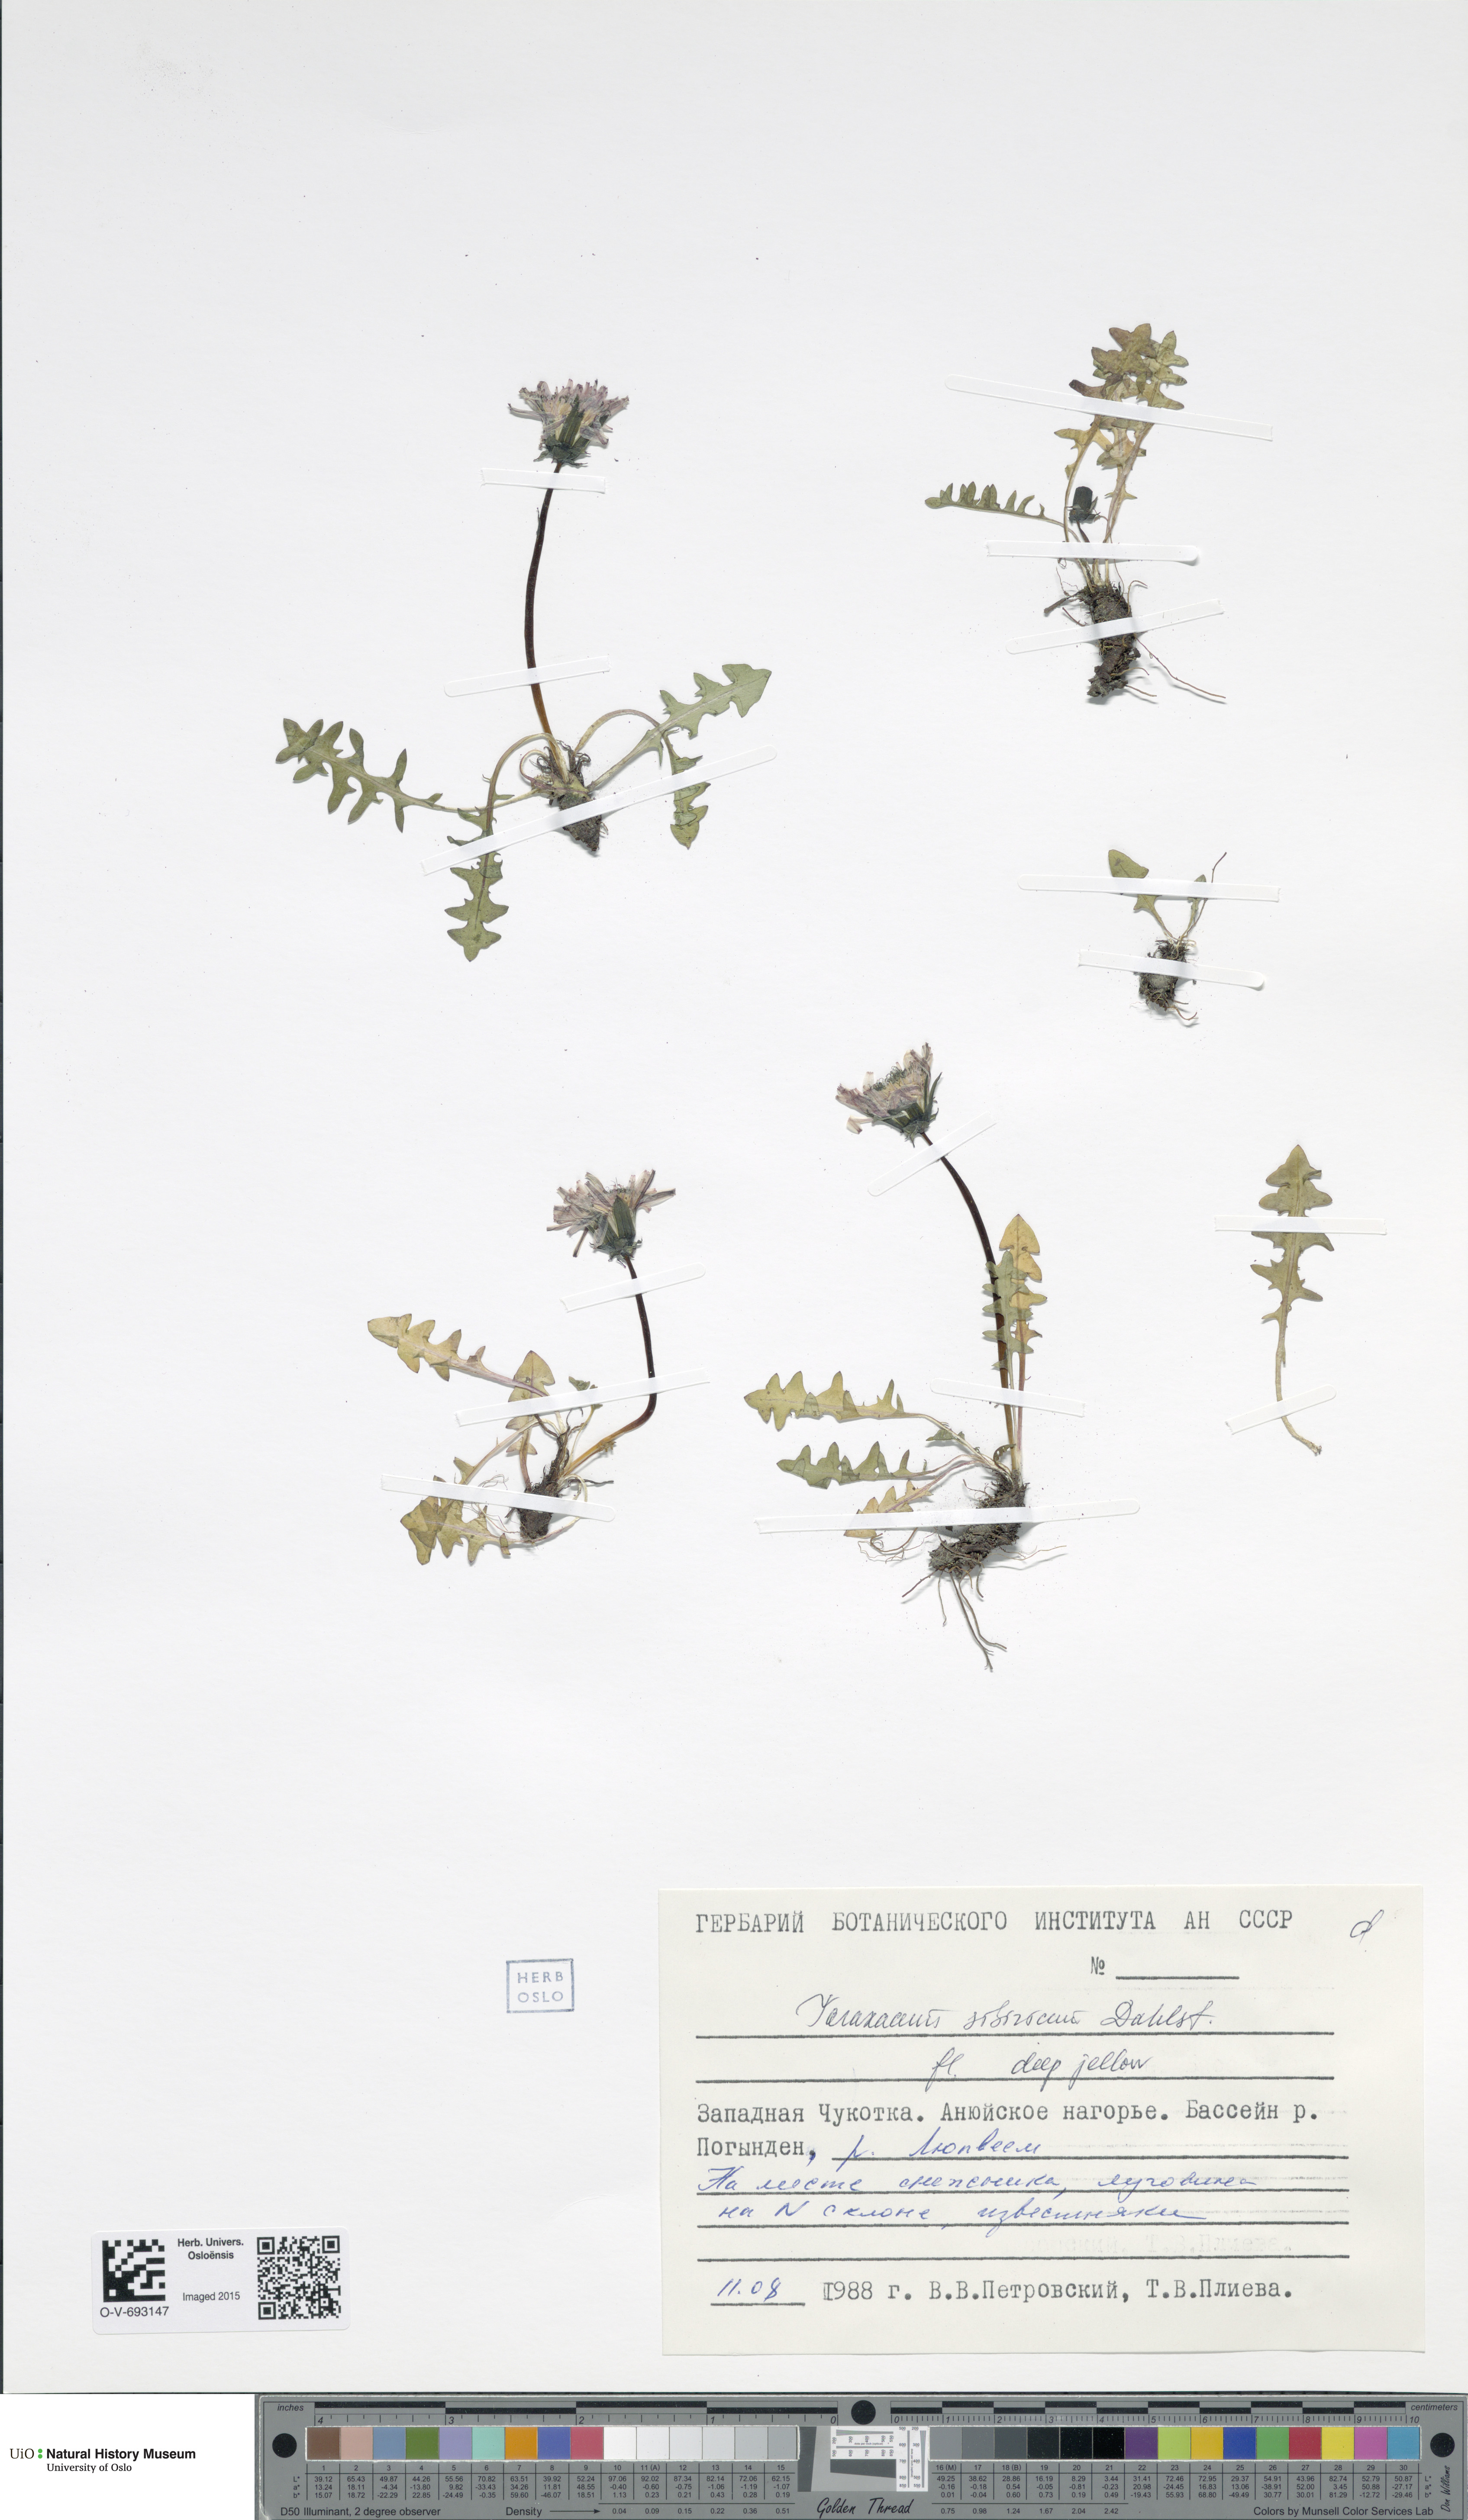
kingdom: Plantae
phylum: Tracheophyta
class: Magnoliopsida
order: Asterales
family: Asteraceae
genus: Taraxacum
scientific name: Taraxacum sibiricum
